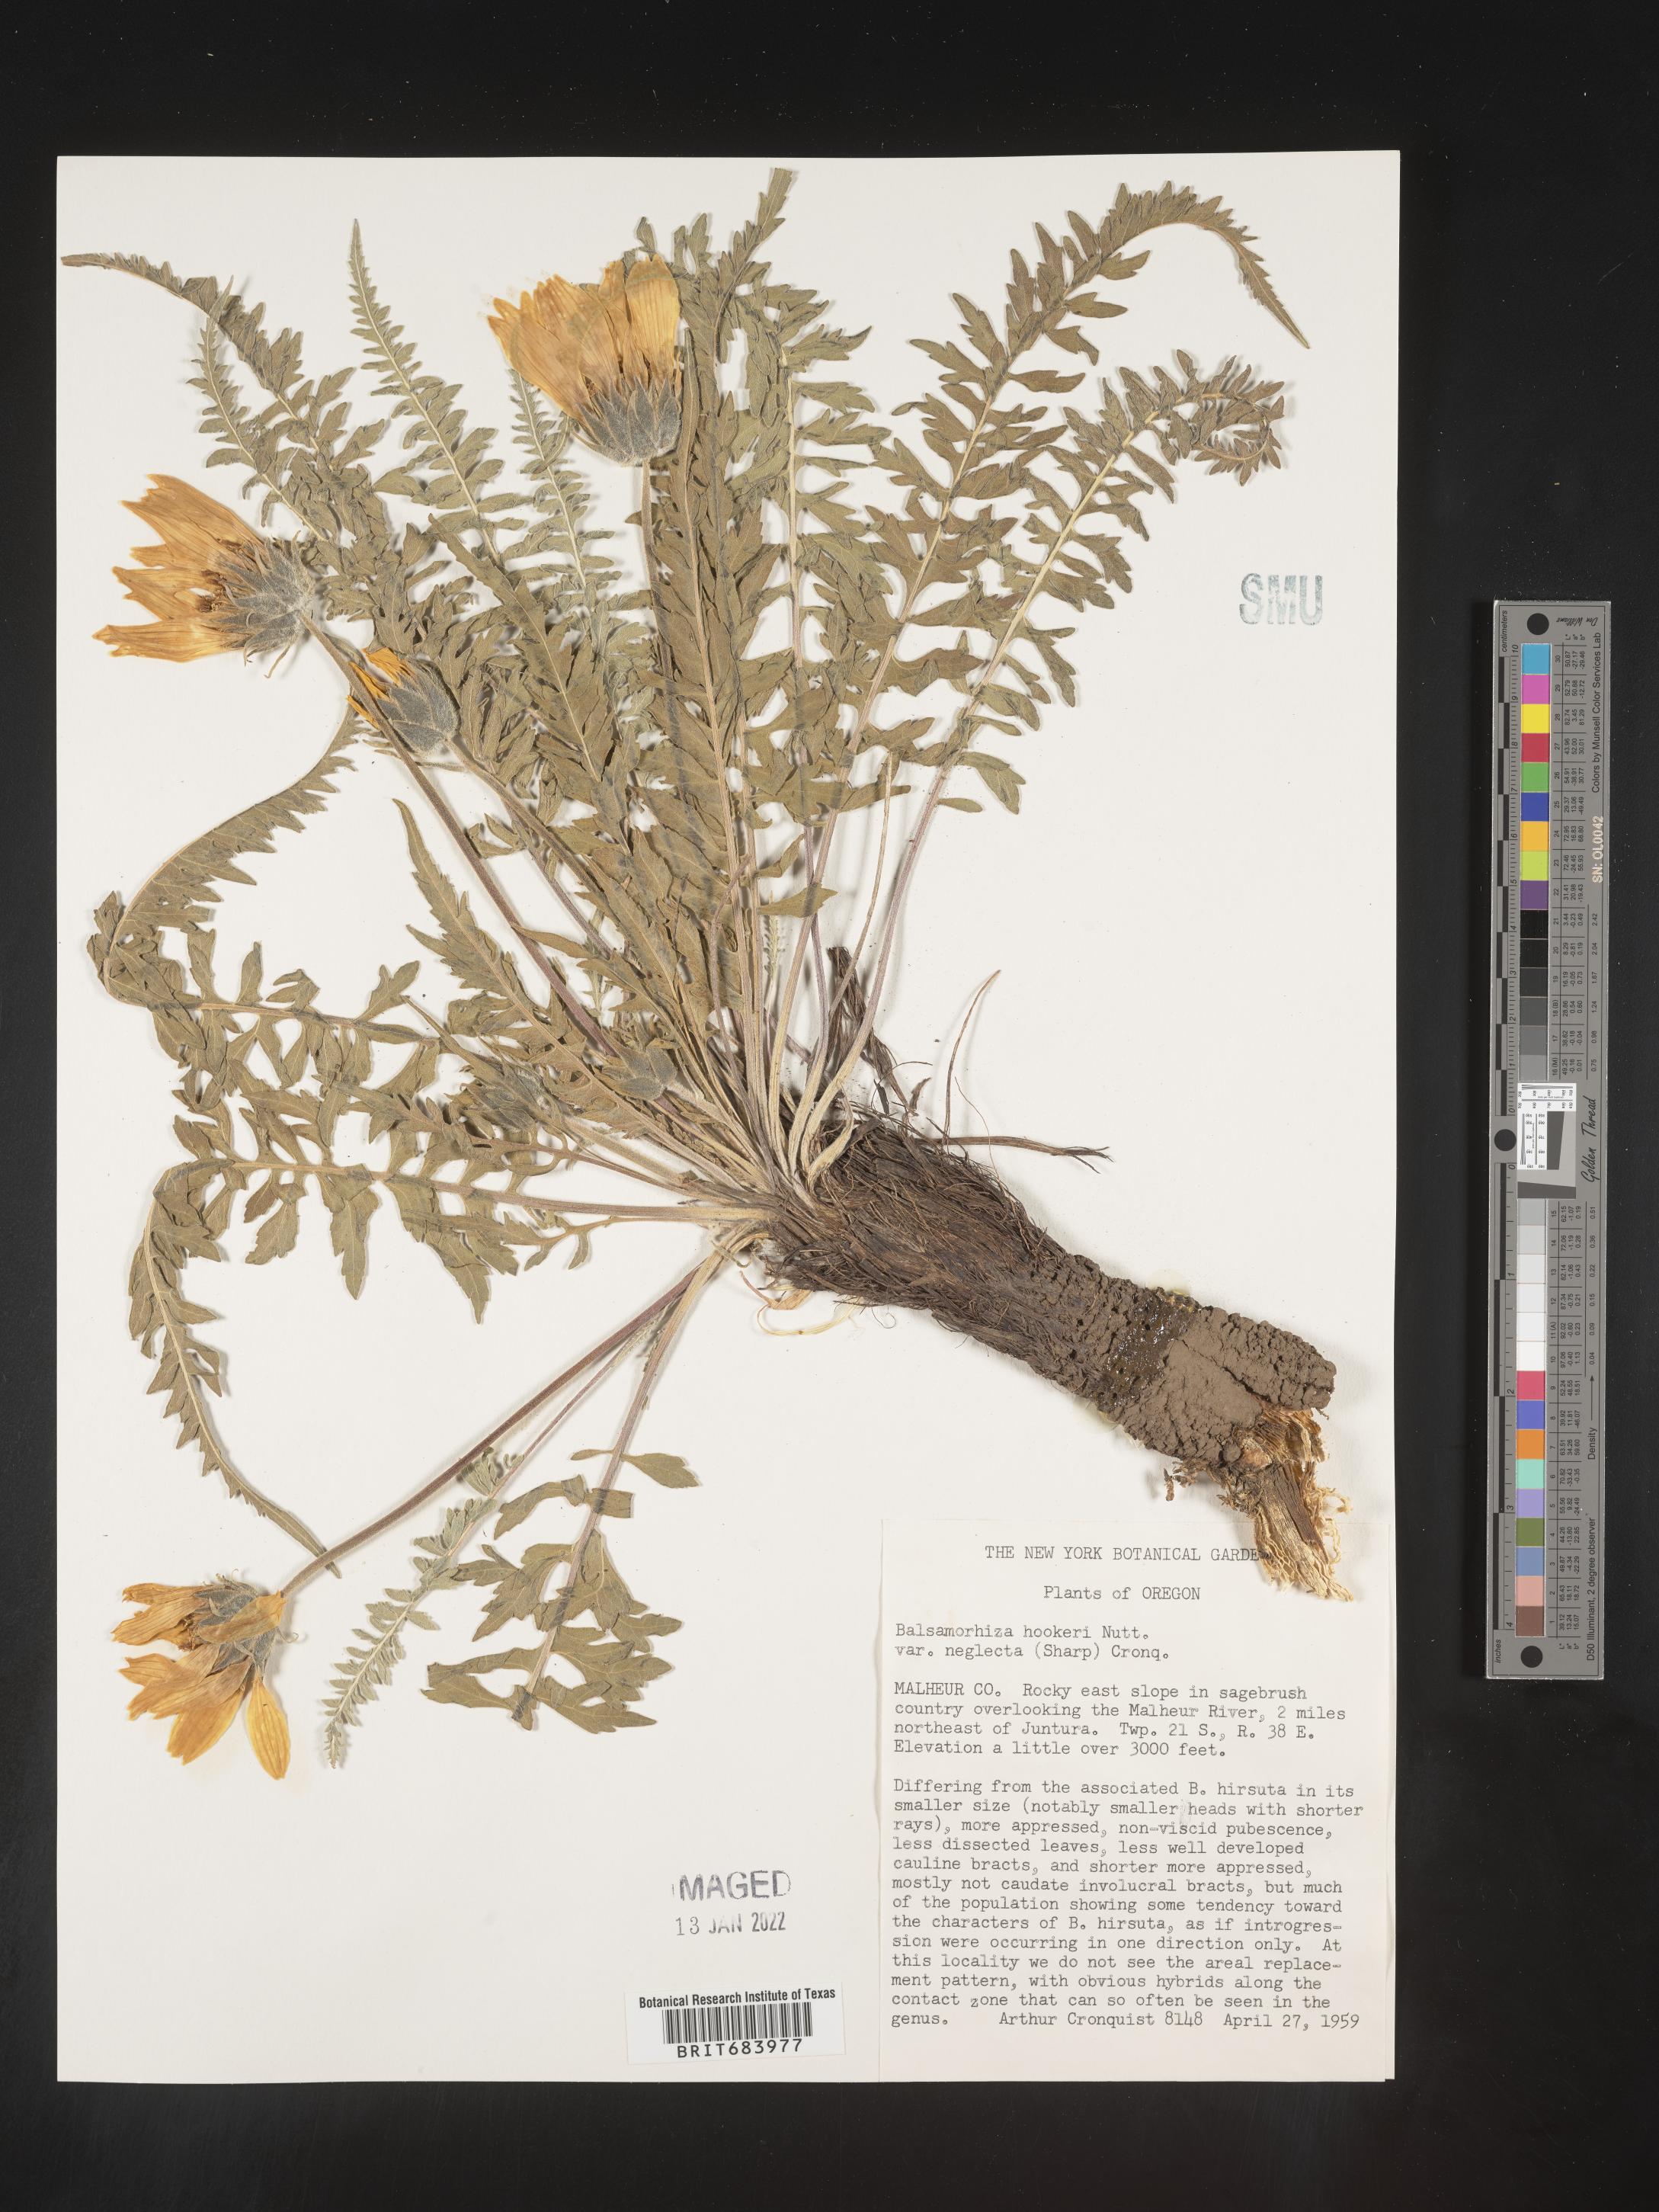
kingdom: Plantae
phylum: Tracheophyta
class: Magnoliopsida
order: Asterales
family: Asteraceae
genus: Balsamorhiza
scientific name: Balsamorhiza
